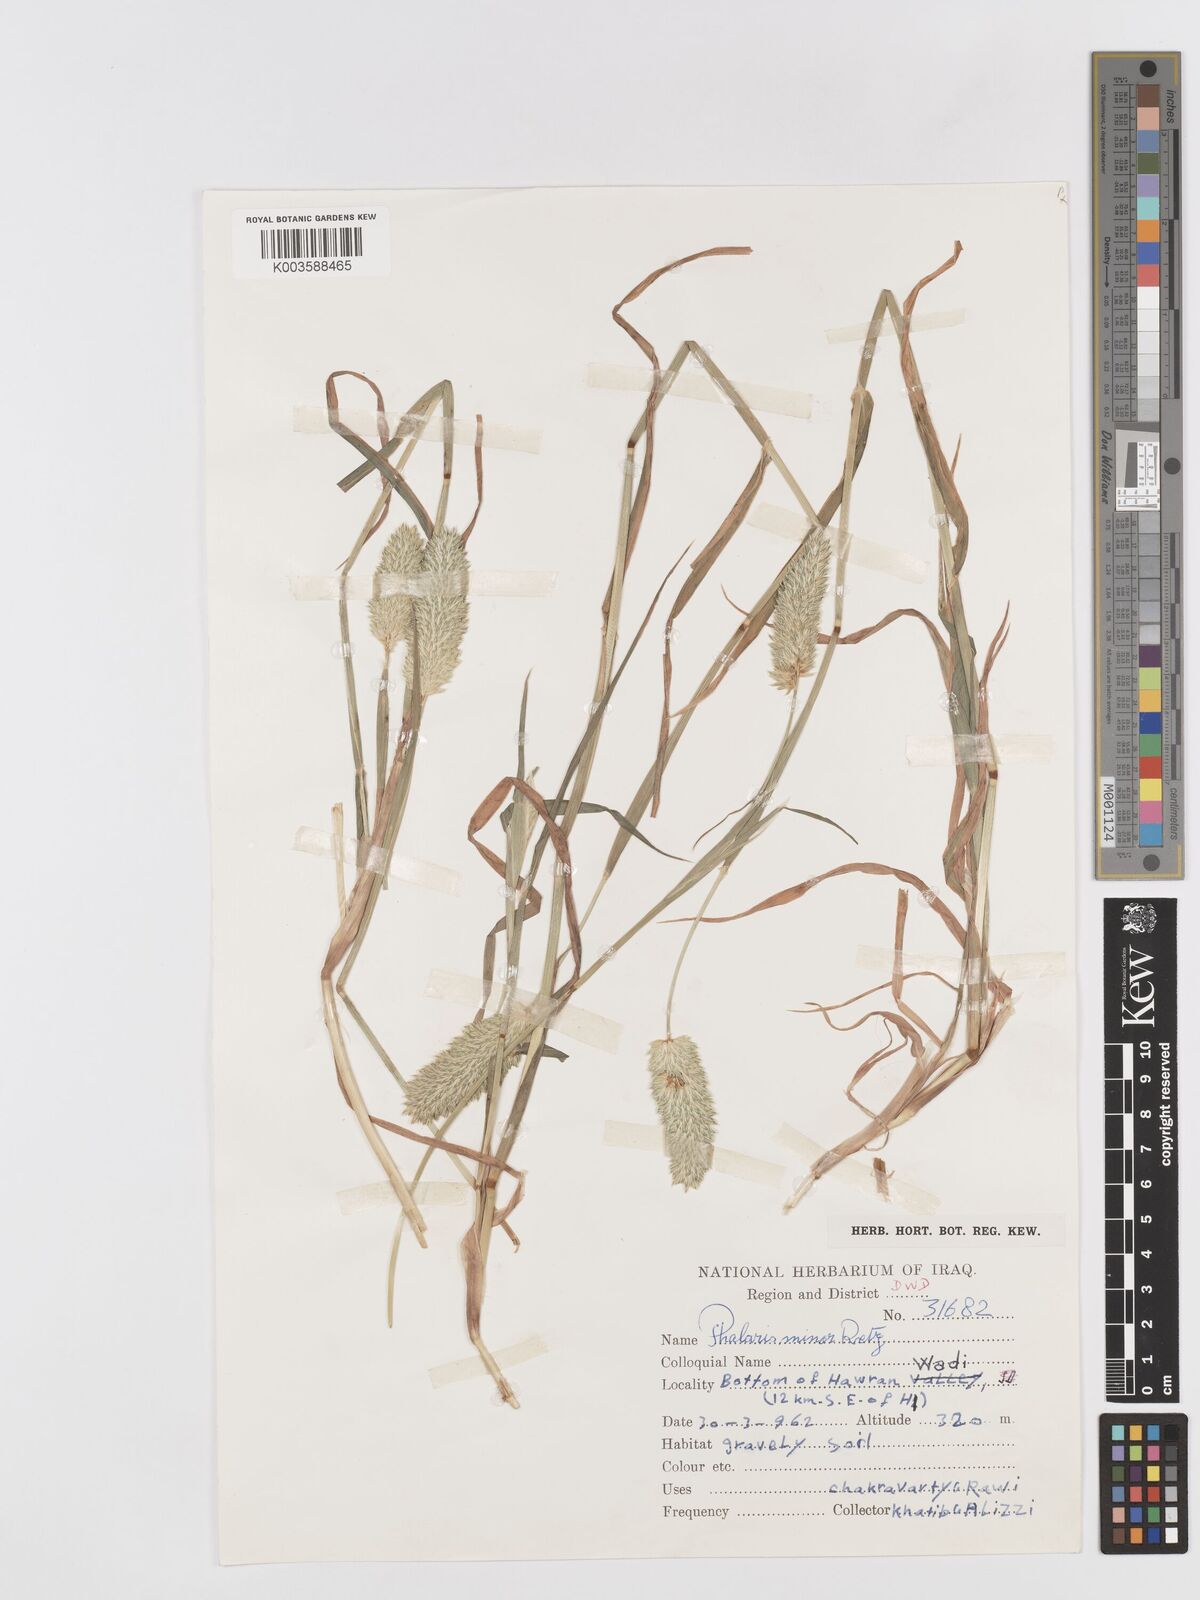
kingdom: Plantae
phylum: Tracheophyta
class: Liliopsida
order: Poales
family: Poaceae
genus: Phalaris
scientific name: Phalaris minor
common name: Littleseed canarygrass
